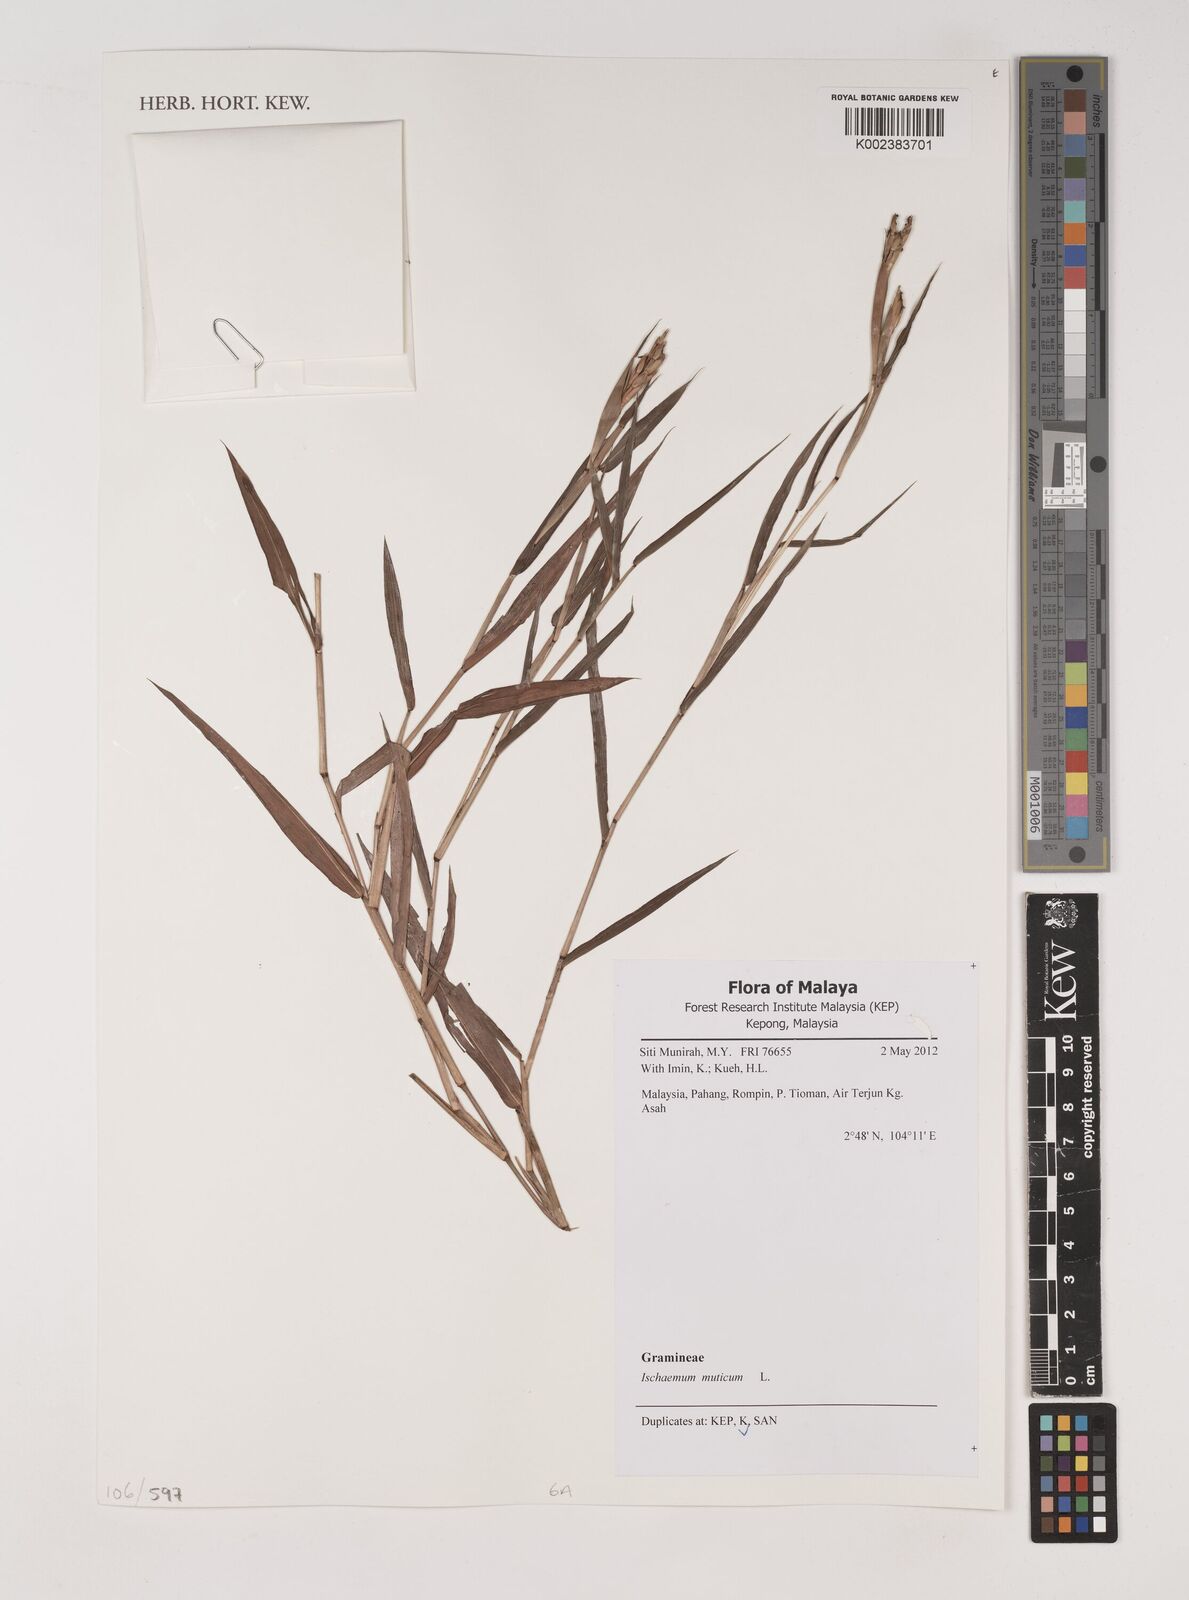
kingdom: Plantae
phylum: Tracheophyta
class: Liliopsida
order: Poales
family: Poaceae
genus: Ischaemum
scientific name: Ischaemum muticum
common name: Drought grass
